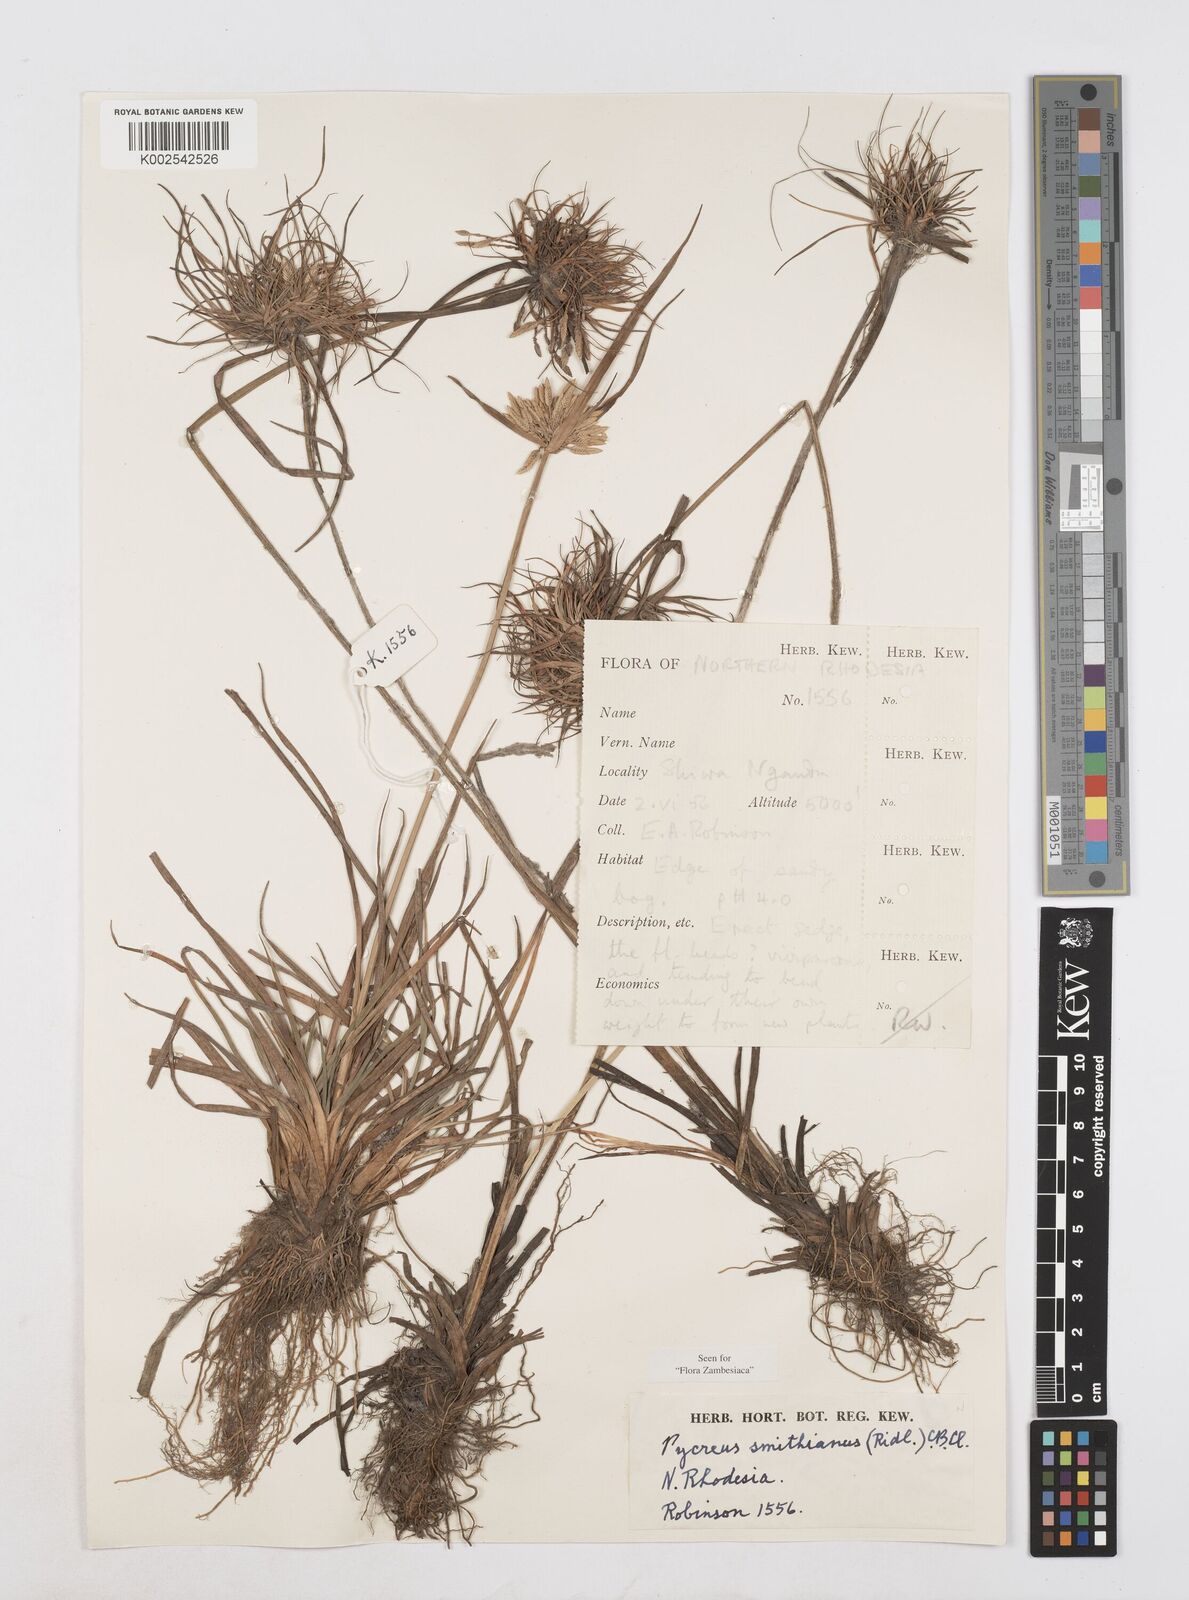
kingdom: Plantae
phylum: Tracheophyta
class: Liliopsida
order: Poales
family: Cyperaceae
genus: Cyperus
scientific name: Cyperus smithianus
